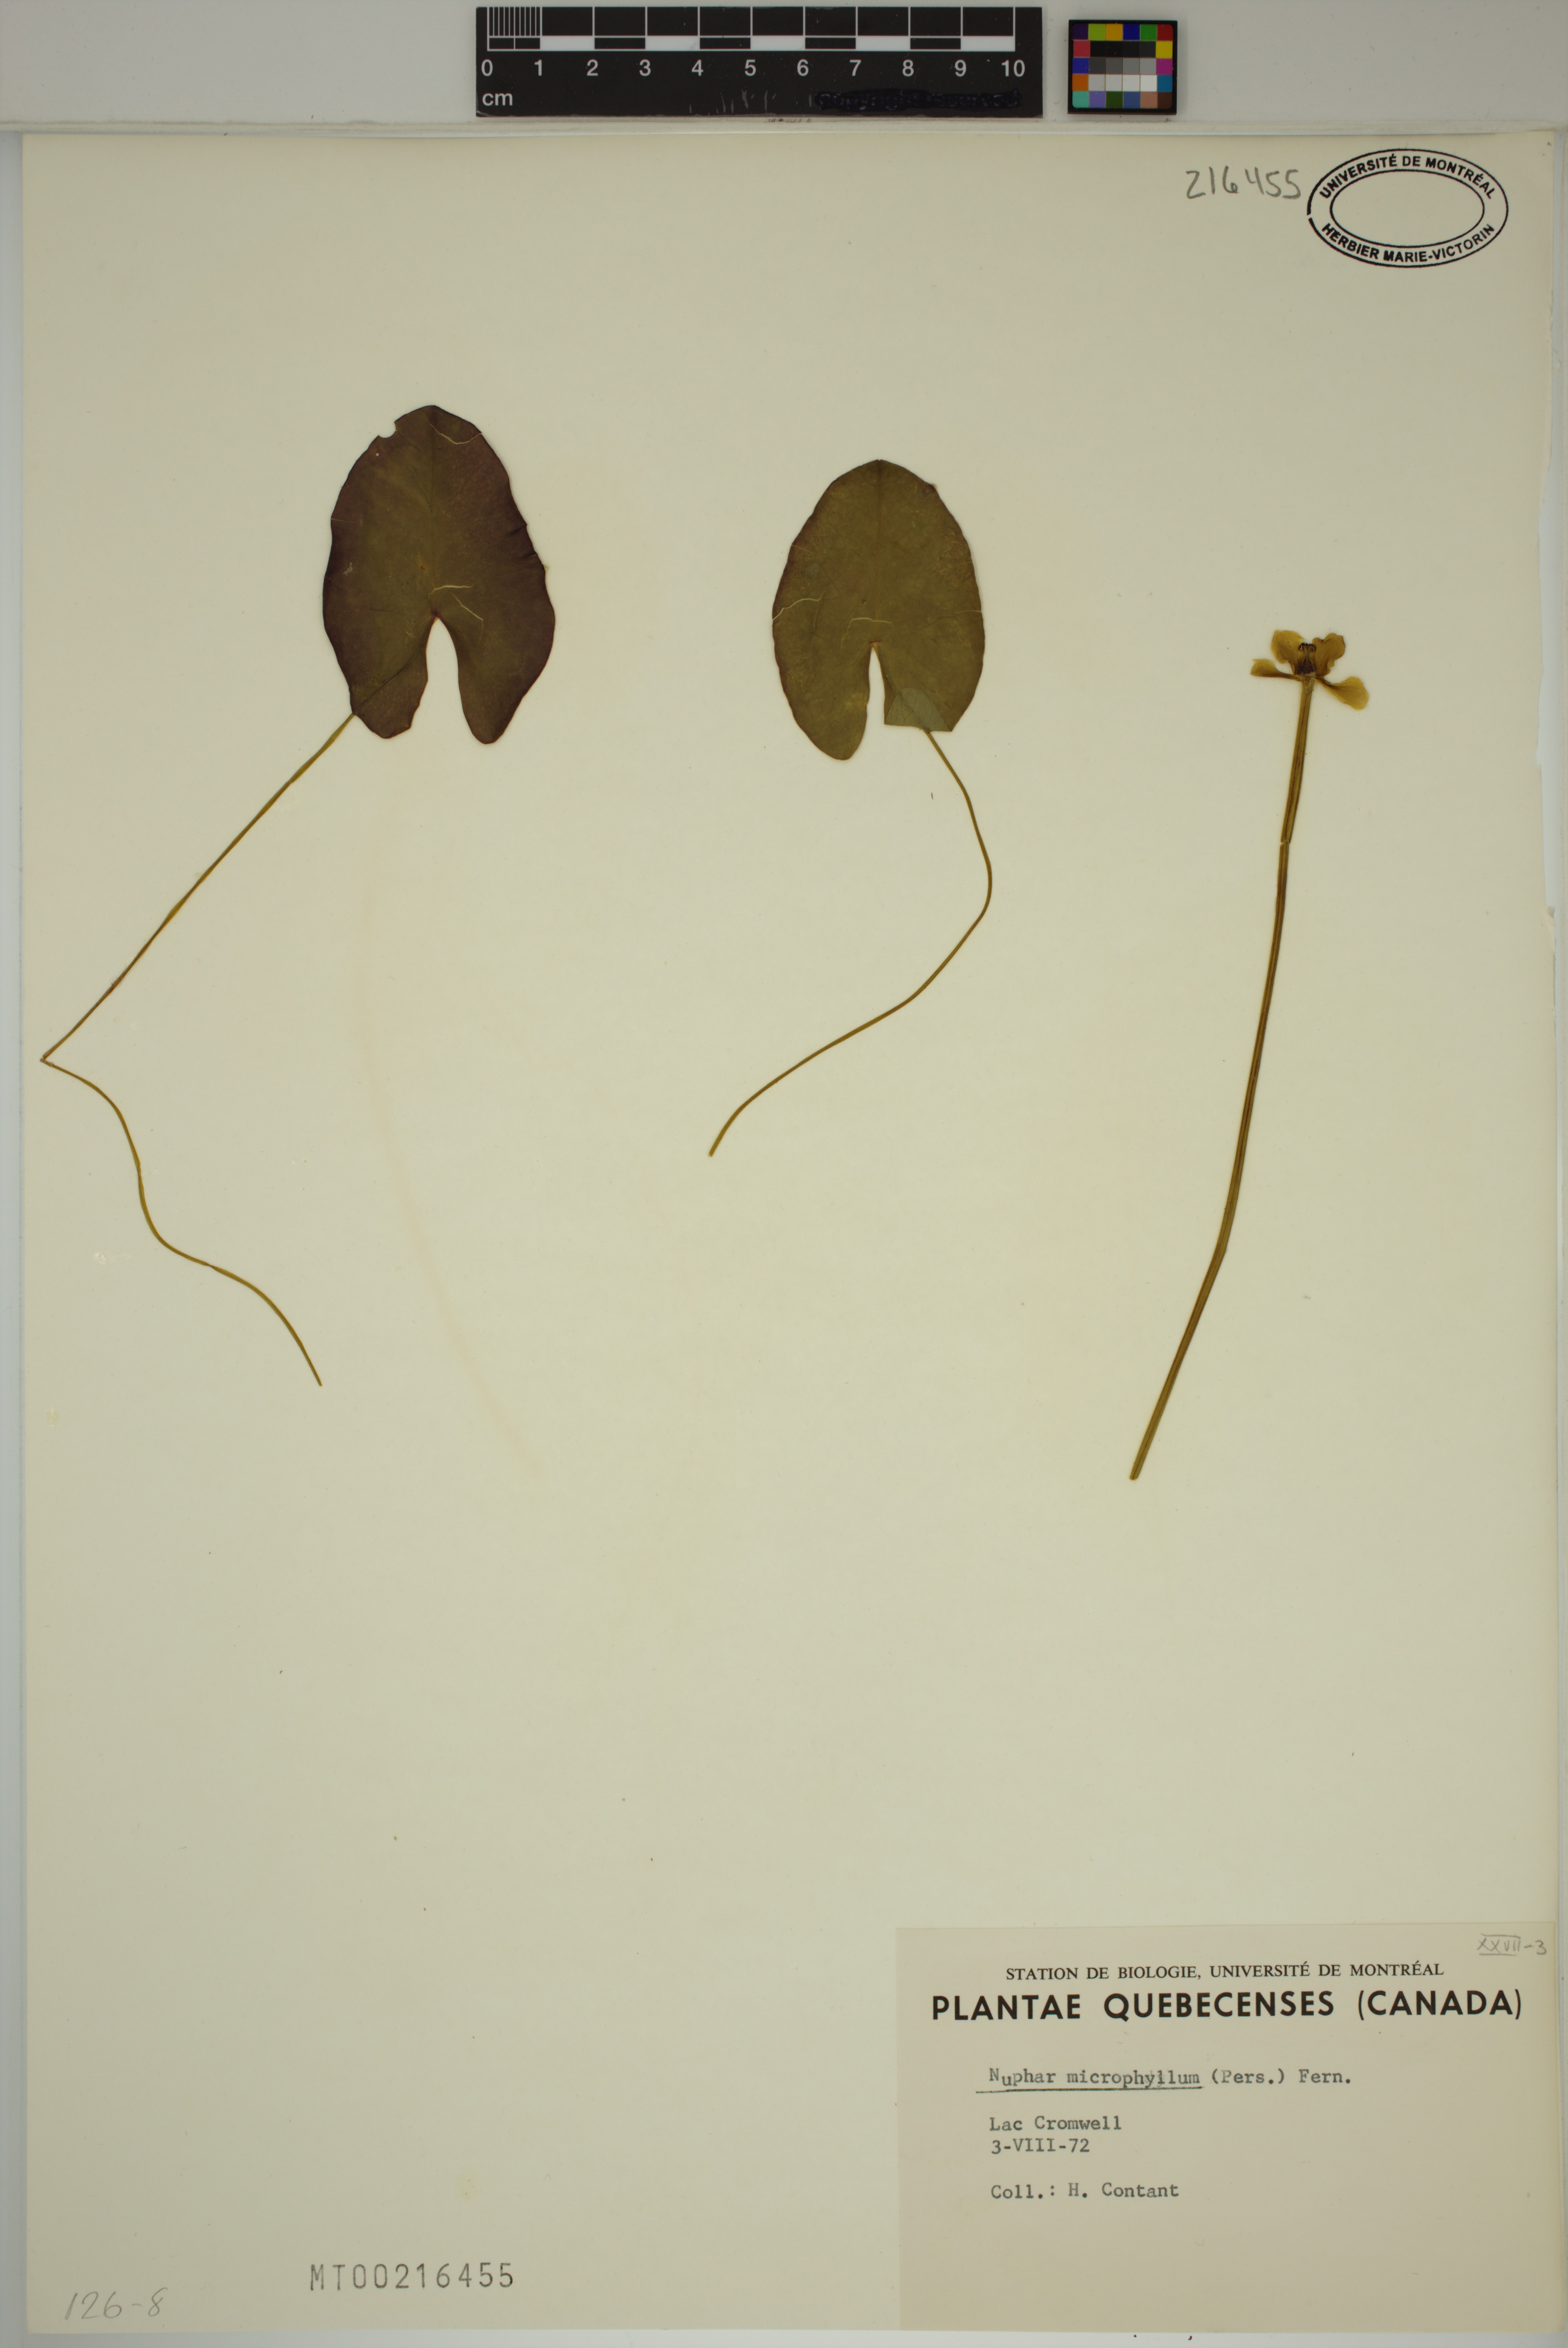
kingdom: Plantae
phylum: Tracheophyta
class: Magnoliopsida
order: Nymphaeales
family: Nymphaeaceae
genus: Nuphar
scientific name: Nuphar microphylla
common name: Small pond-lily
